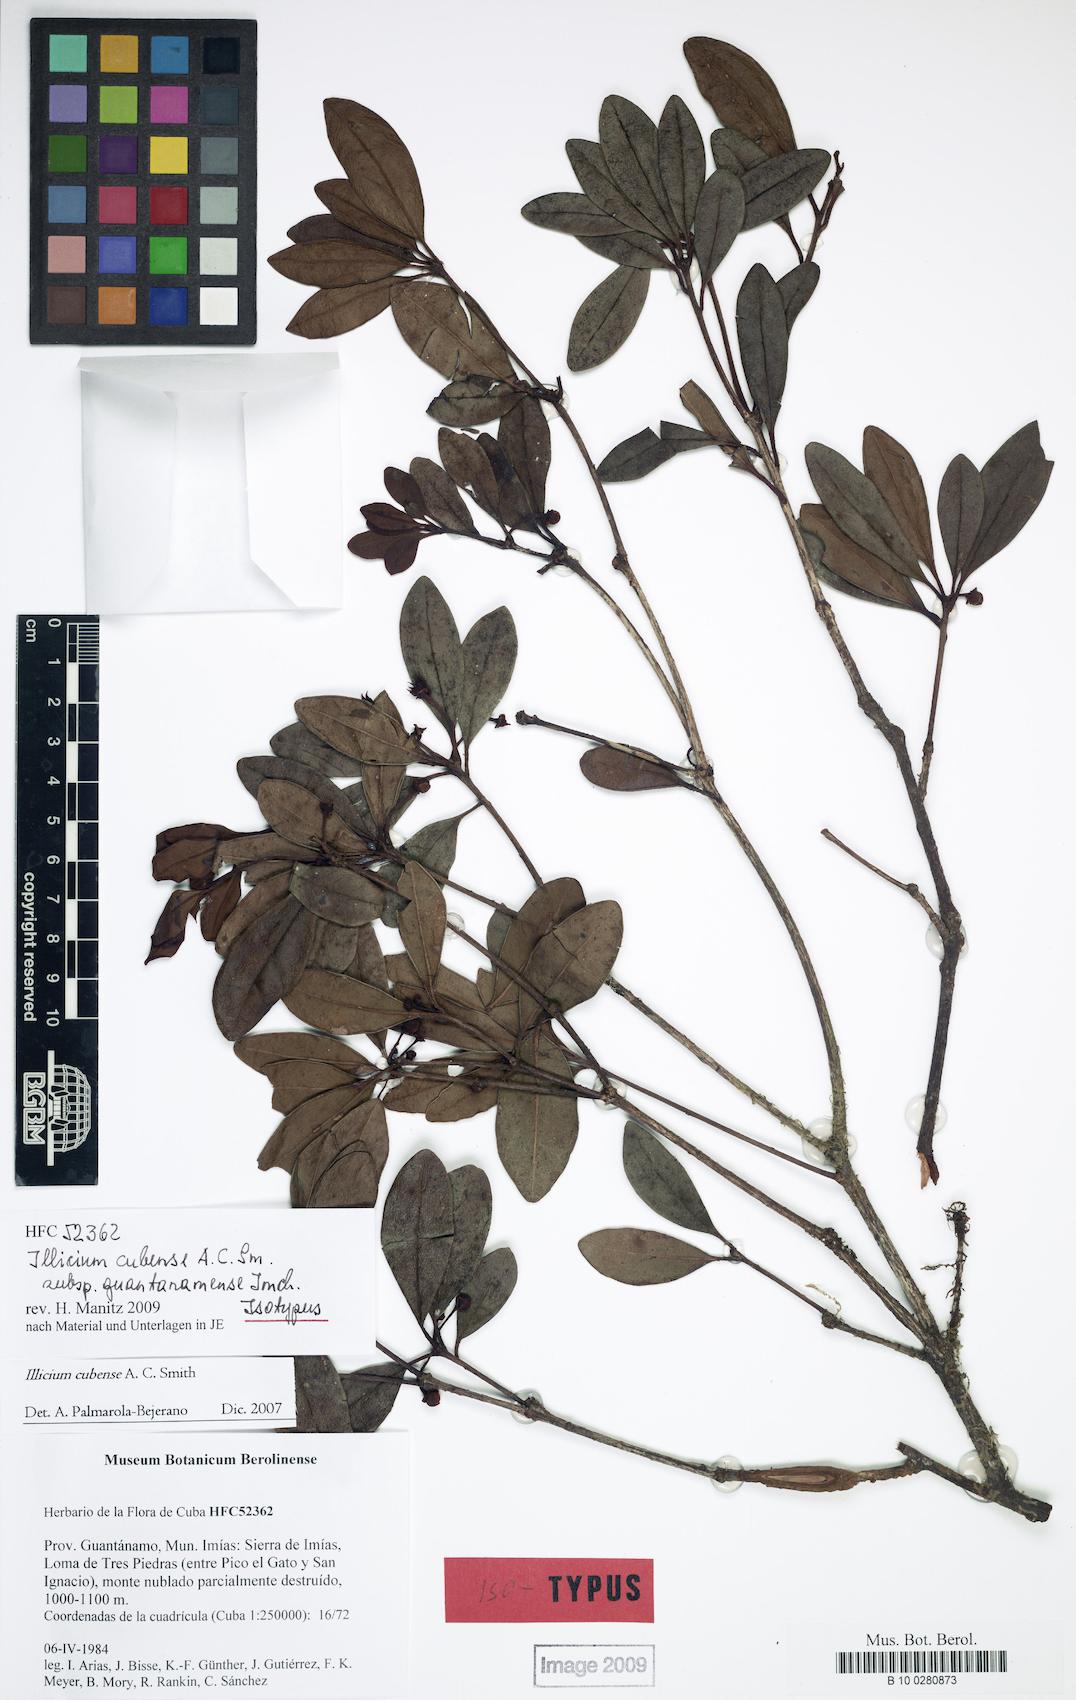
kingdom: Plantae
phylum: Tracheophyta
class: Magnoliopsida
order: Austrobaileyales
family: Schisandraceae
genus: Illicium
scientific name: Illicium cubense
